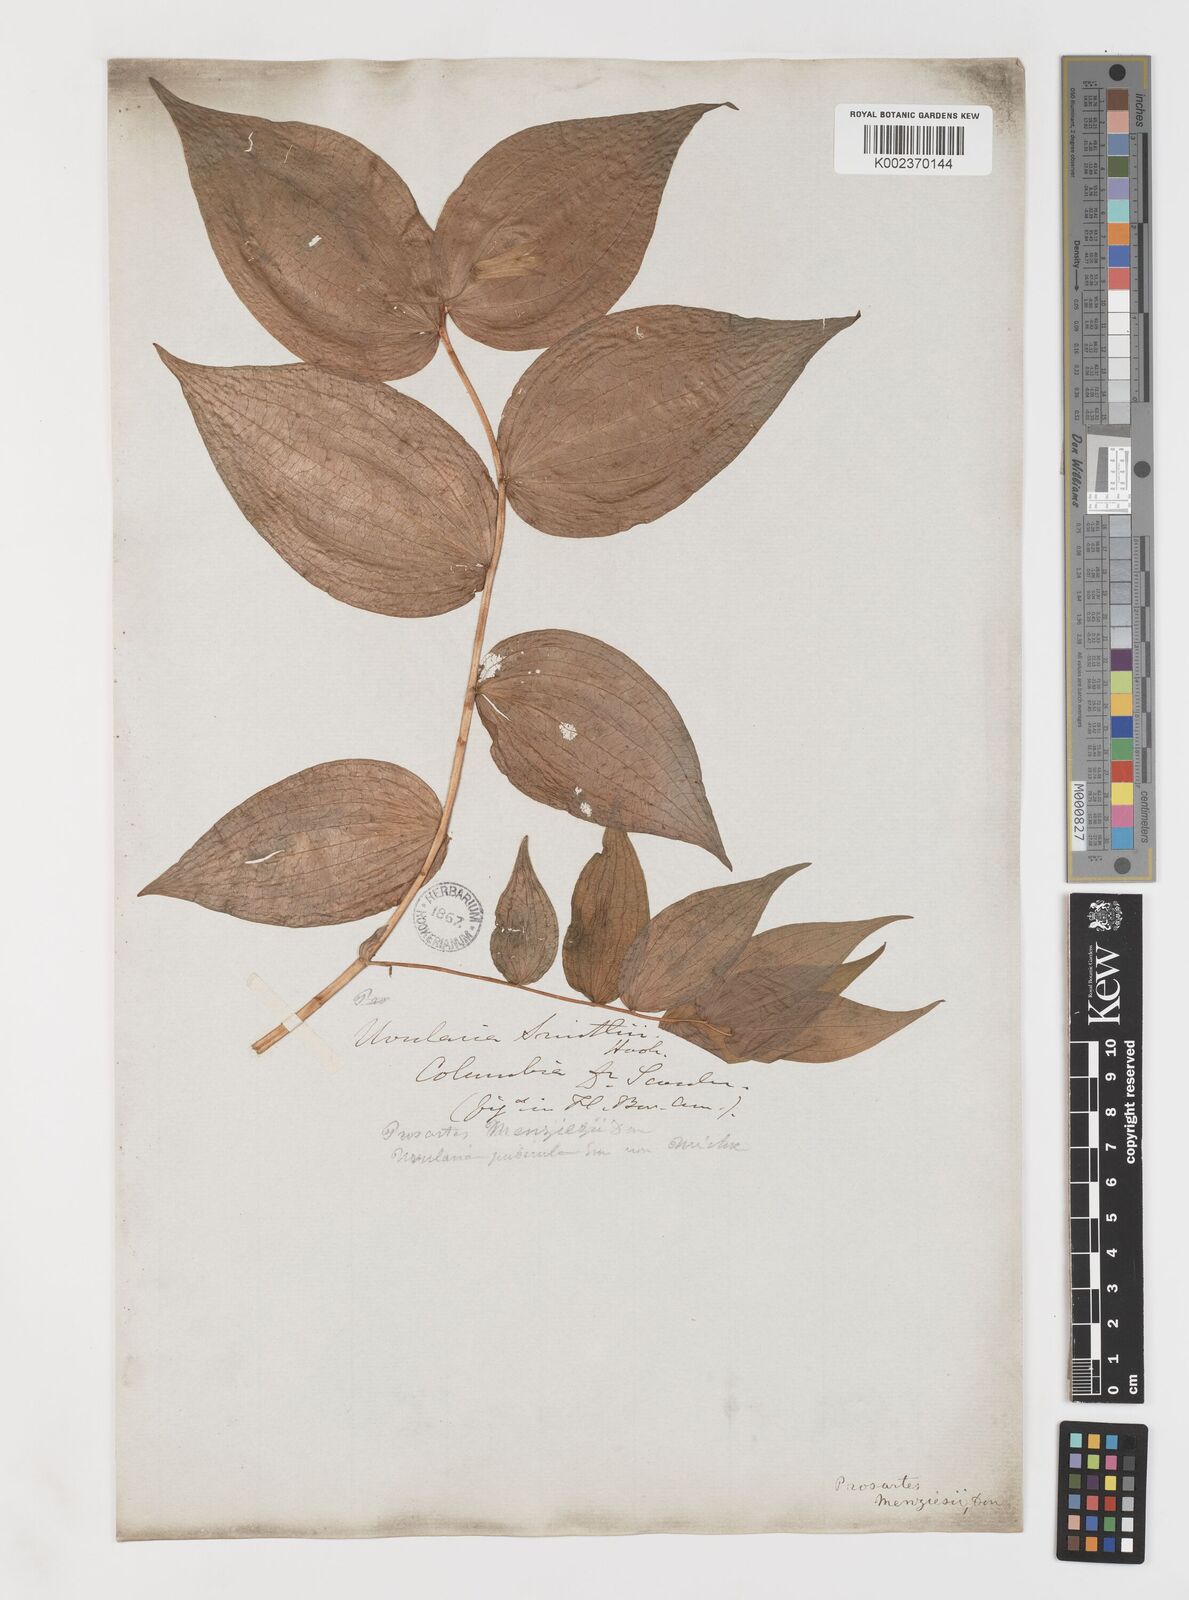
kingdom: Plantae
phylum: Tracheophyta
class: Liliopsida
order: Liliales
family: Liliaceae
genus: Prosartes
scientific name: Prosartes smithii
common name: Fairy-lantern
